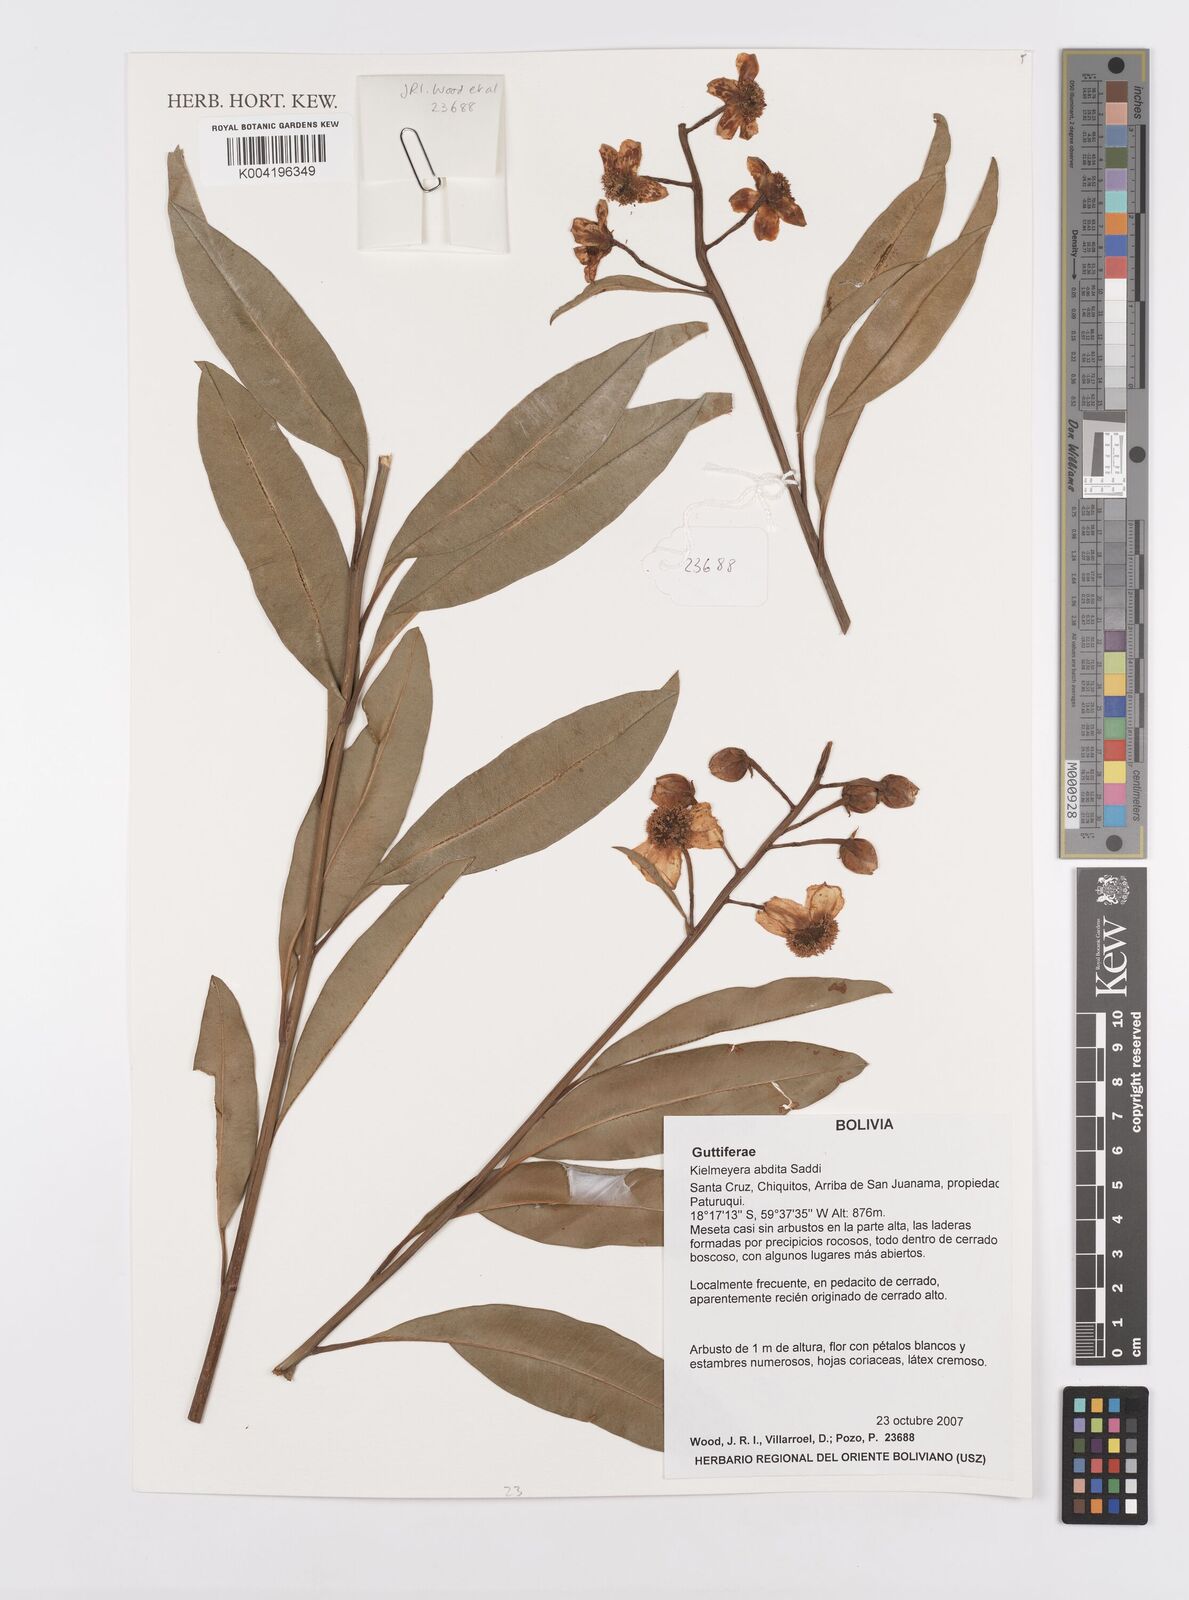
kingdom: Plantae
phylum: Tracheophyta
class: Magnoliopsida
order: Malpighiales
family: Calophyllaceae
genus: Kielmeyera
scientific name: Kielmeyera abdita
